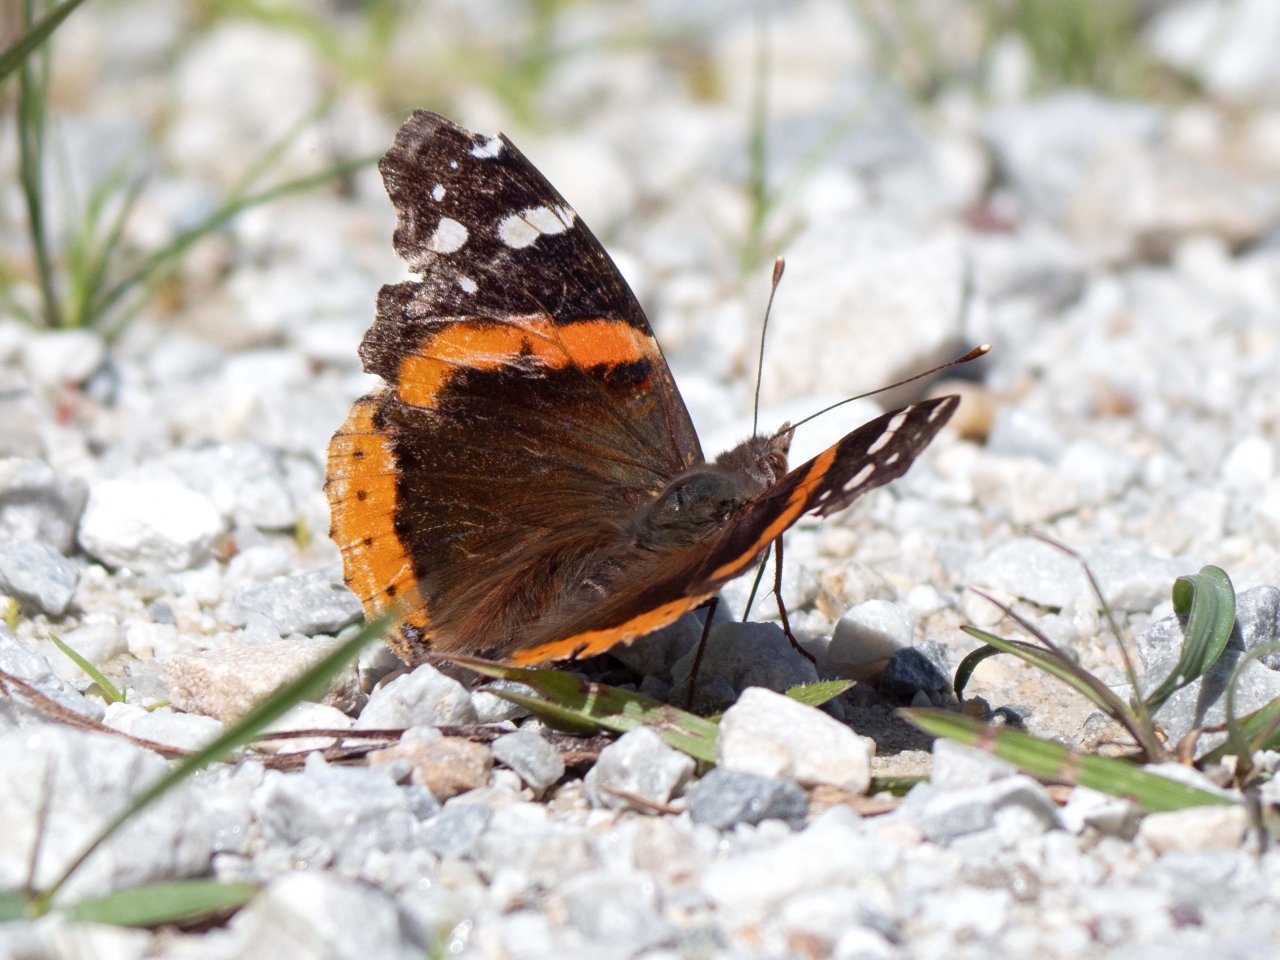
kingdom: Animalia
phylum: Arthropoda
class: Insecta
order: Lepidoptera
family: Nymphalidae
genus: Vanessa
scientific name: Vanessa atalanta
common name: Red Admiral
